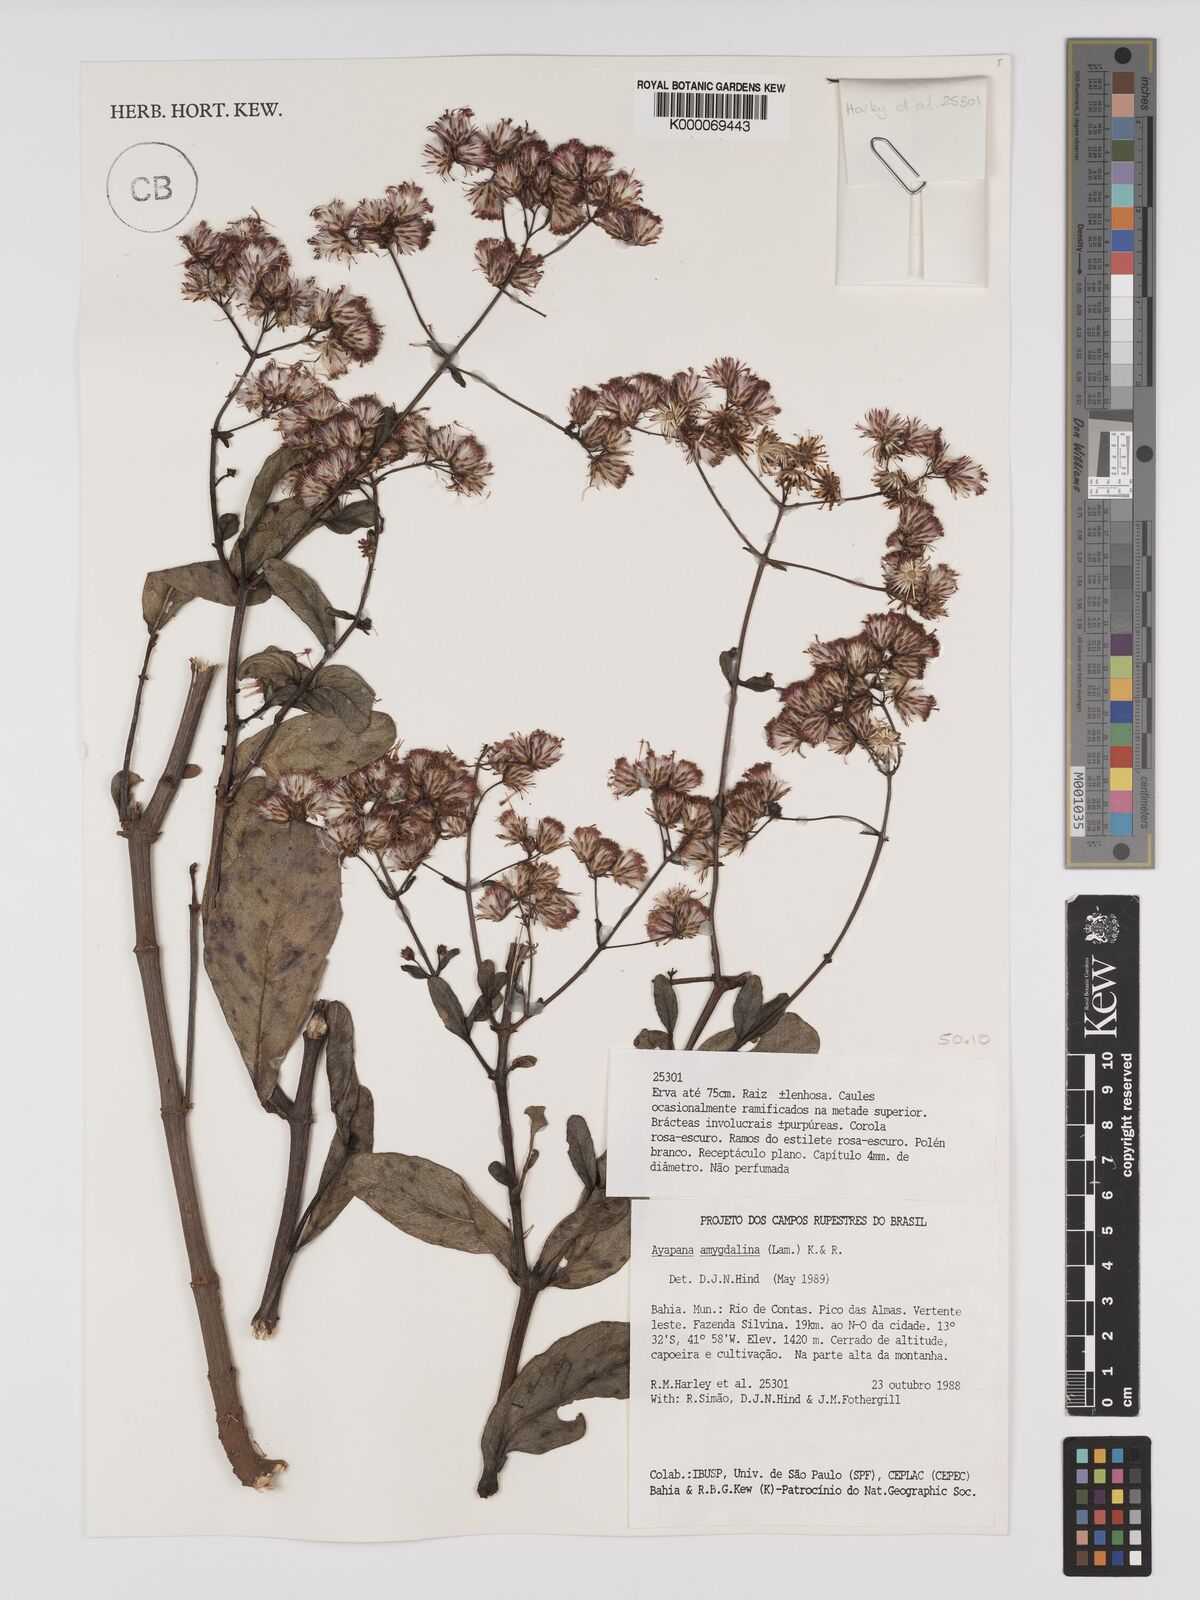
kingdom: Plantae
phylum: Tracheophyta
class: Magnoliopsida
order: Asterales
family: Asteraceae
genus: Ayapana
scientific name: Ayapana amygdalina
